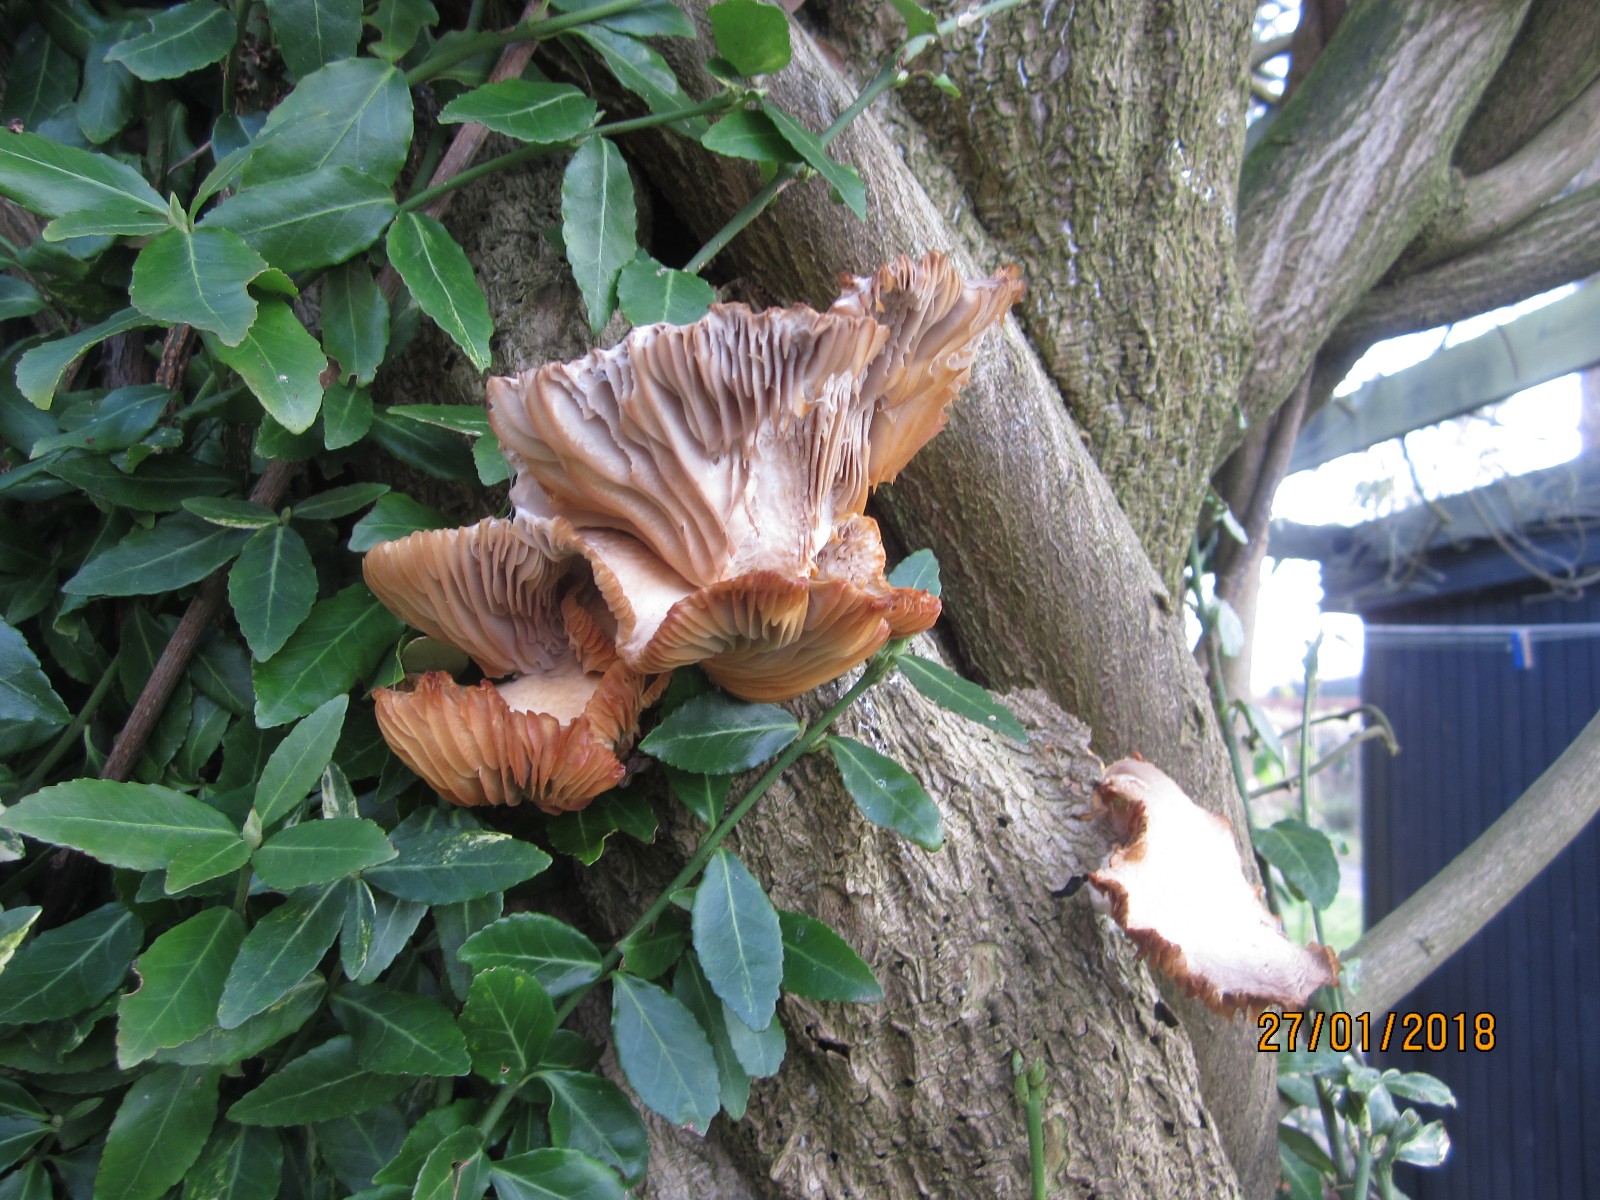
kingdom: Fungi
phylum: Basidiomycota
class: Agaricomycetes
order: Agaricales
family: Pleurotaceae
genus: Pleurotus
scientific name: Pleurotus ostreatus
